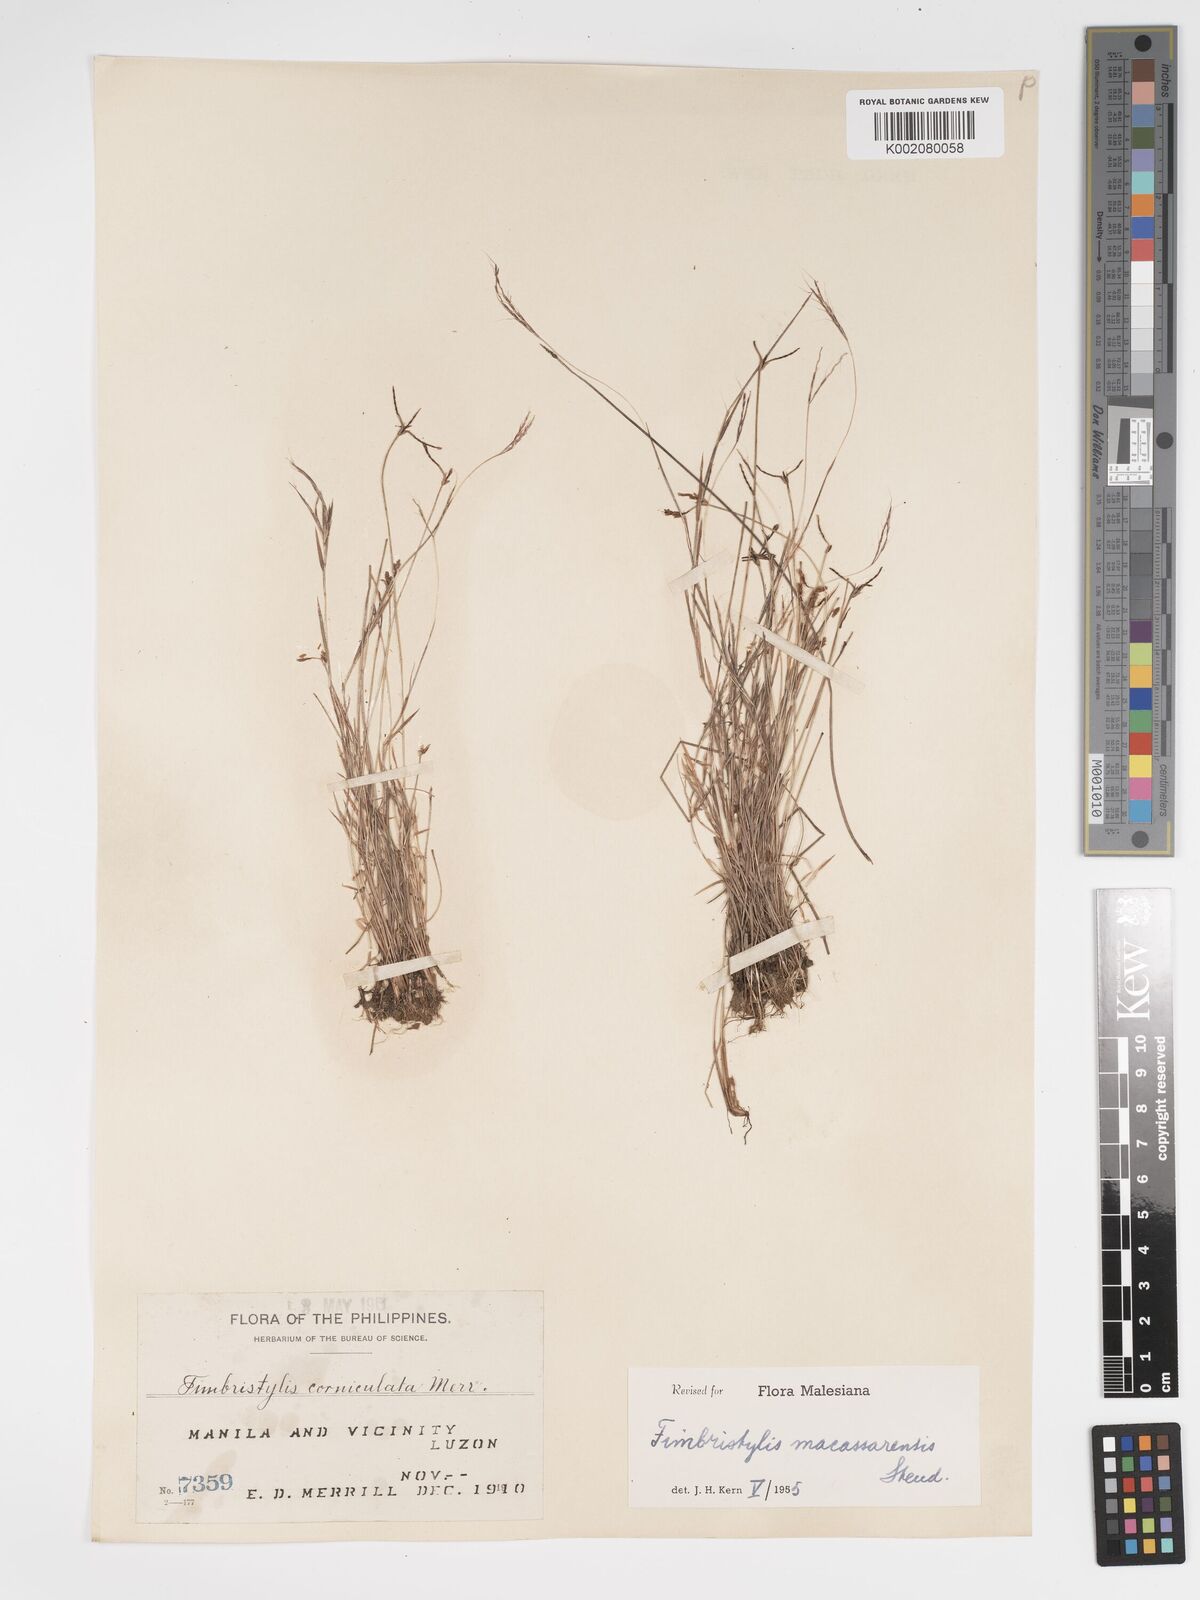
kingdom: Plantae
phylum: Tracheophyta
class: Liliopsida
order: Poales
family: Cyperaceae
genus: Fimbristylis
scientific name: Fimbristylis macassarensis
